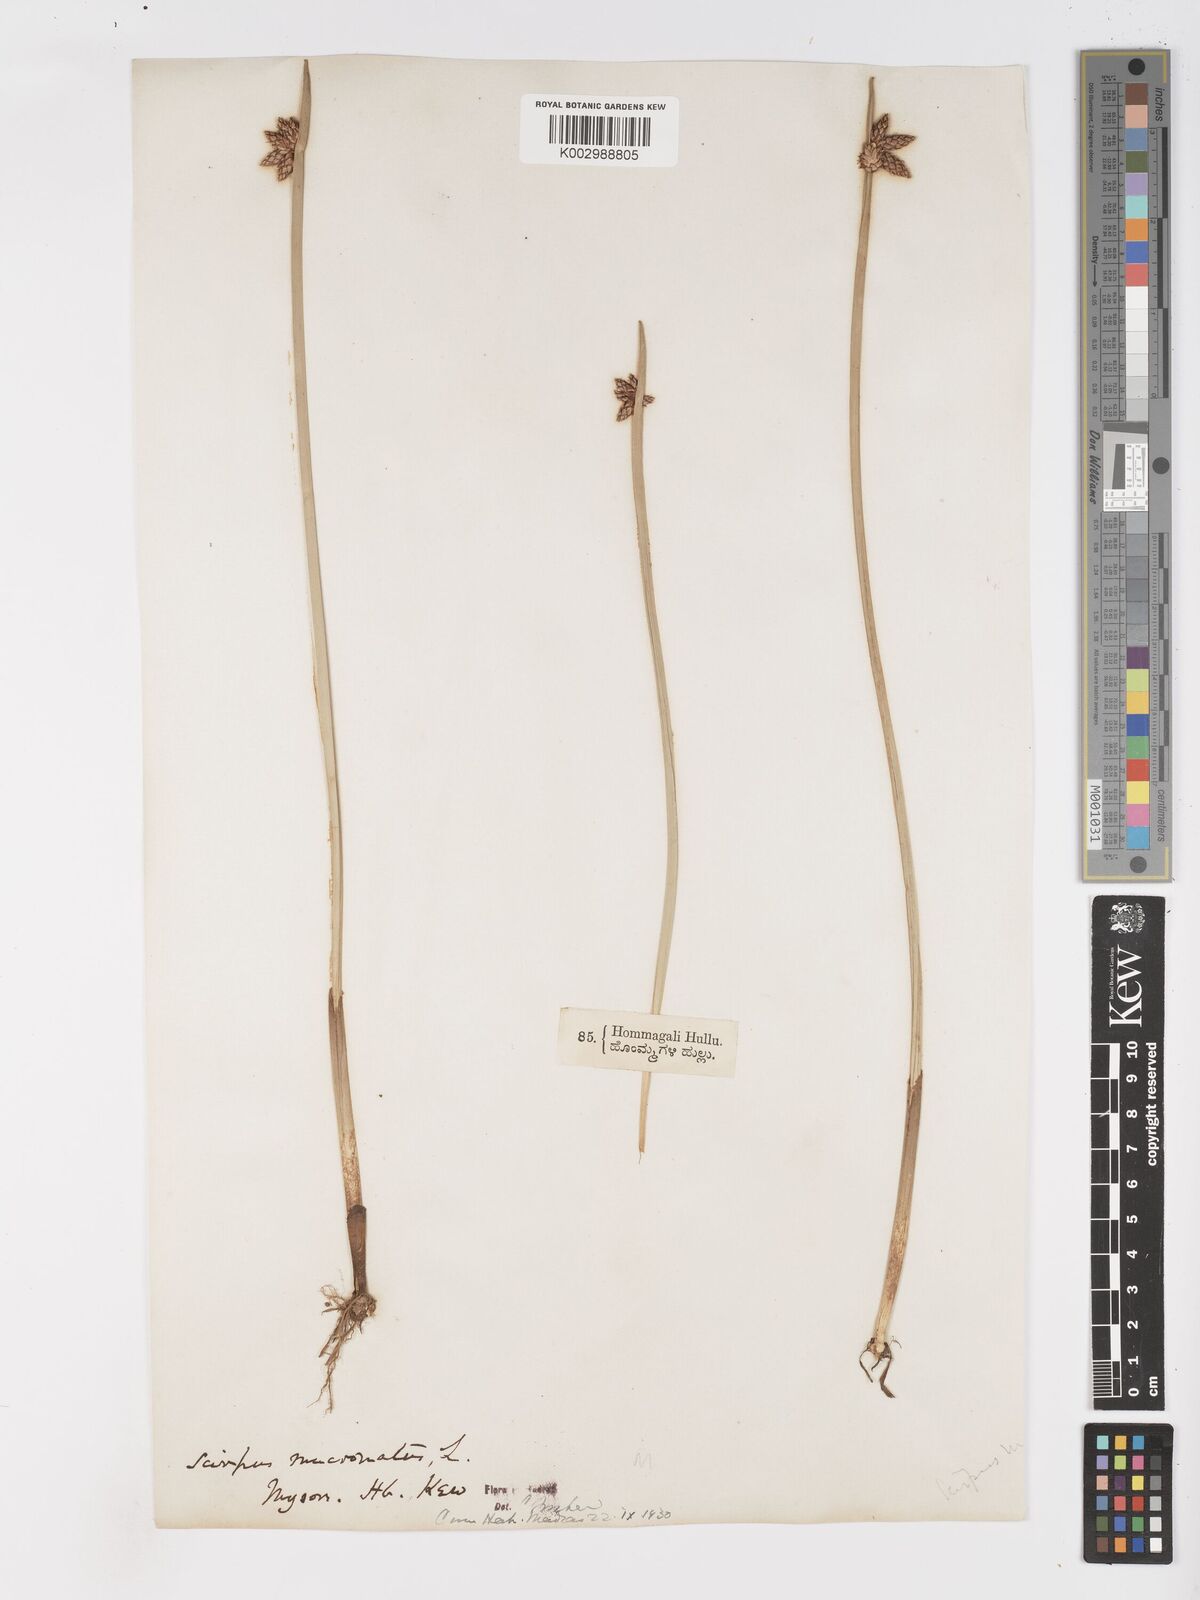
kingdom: Plantae
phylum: Tracheophyta
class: Liliopsida
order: Poales
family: Cyperaceae
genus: Schoenoplectiella
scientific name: Schoenoplectiella mucronata
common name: Bog bulrush
